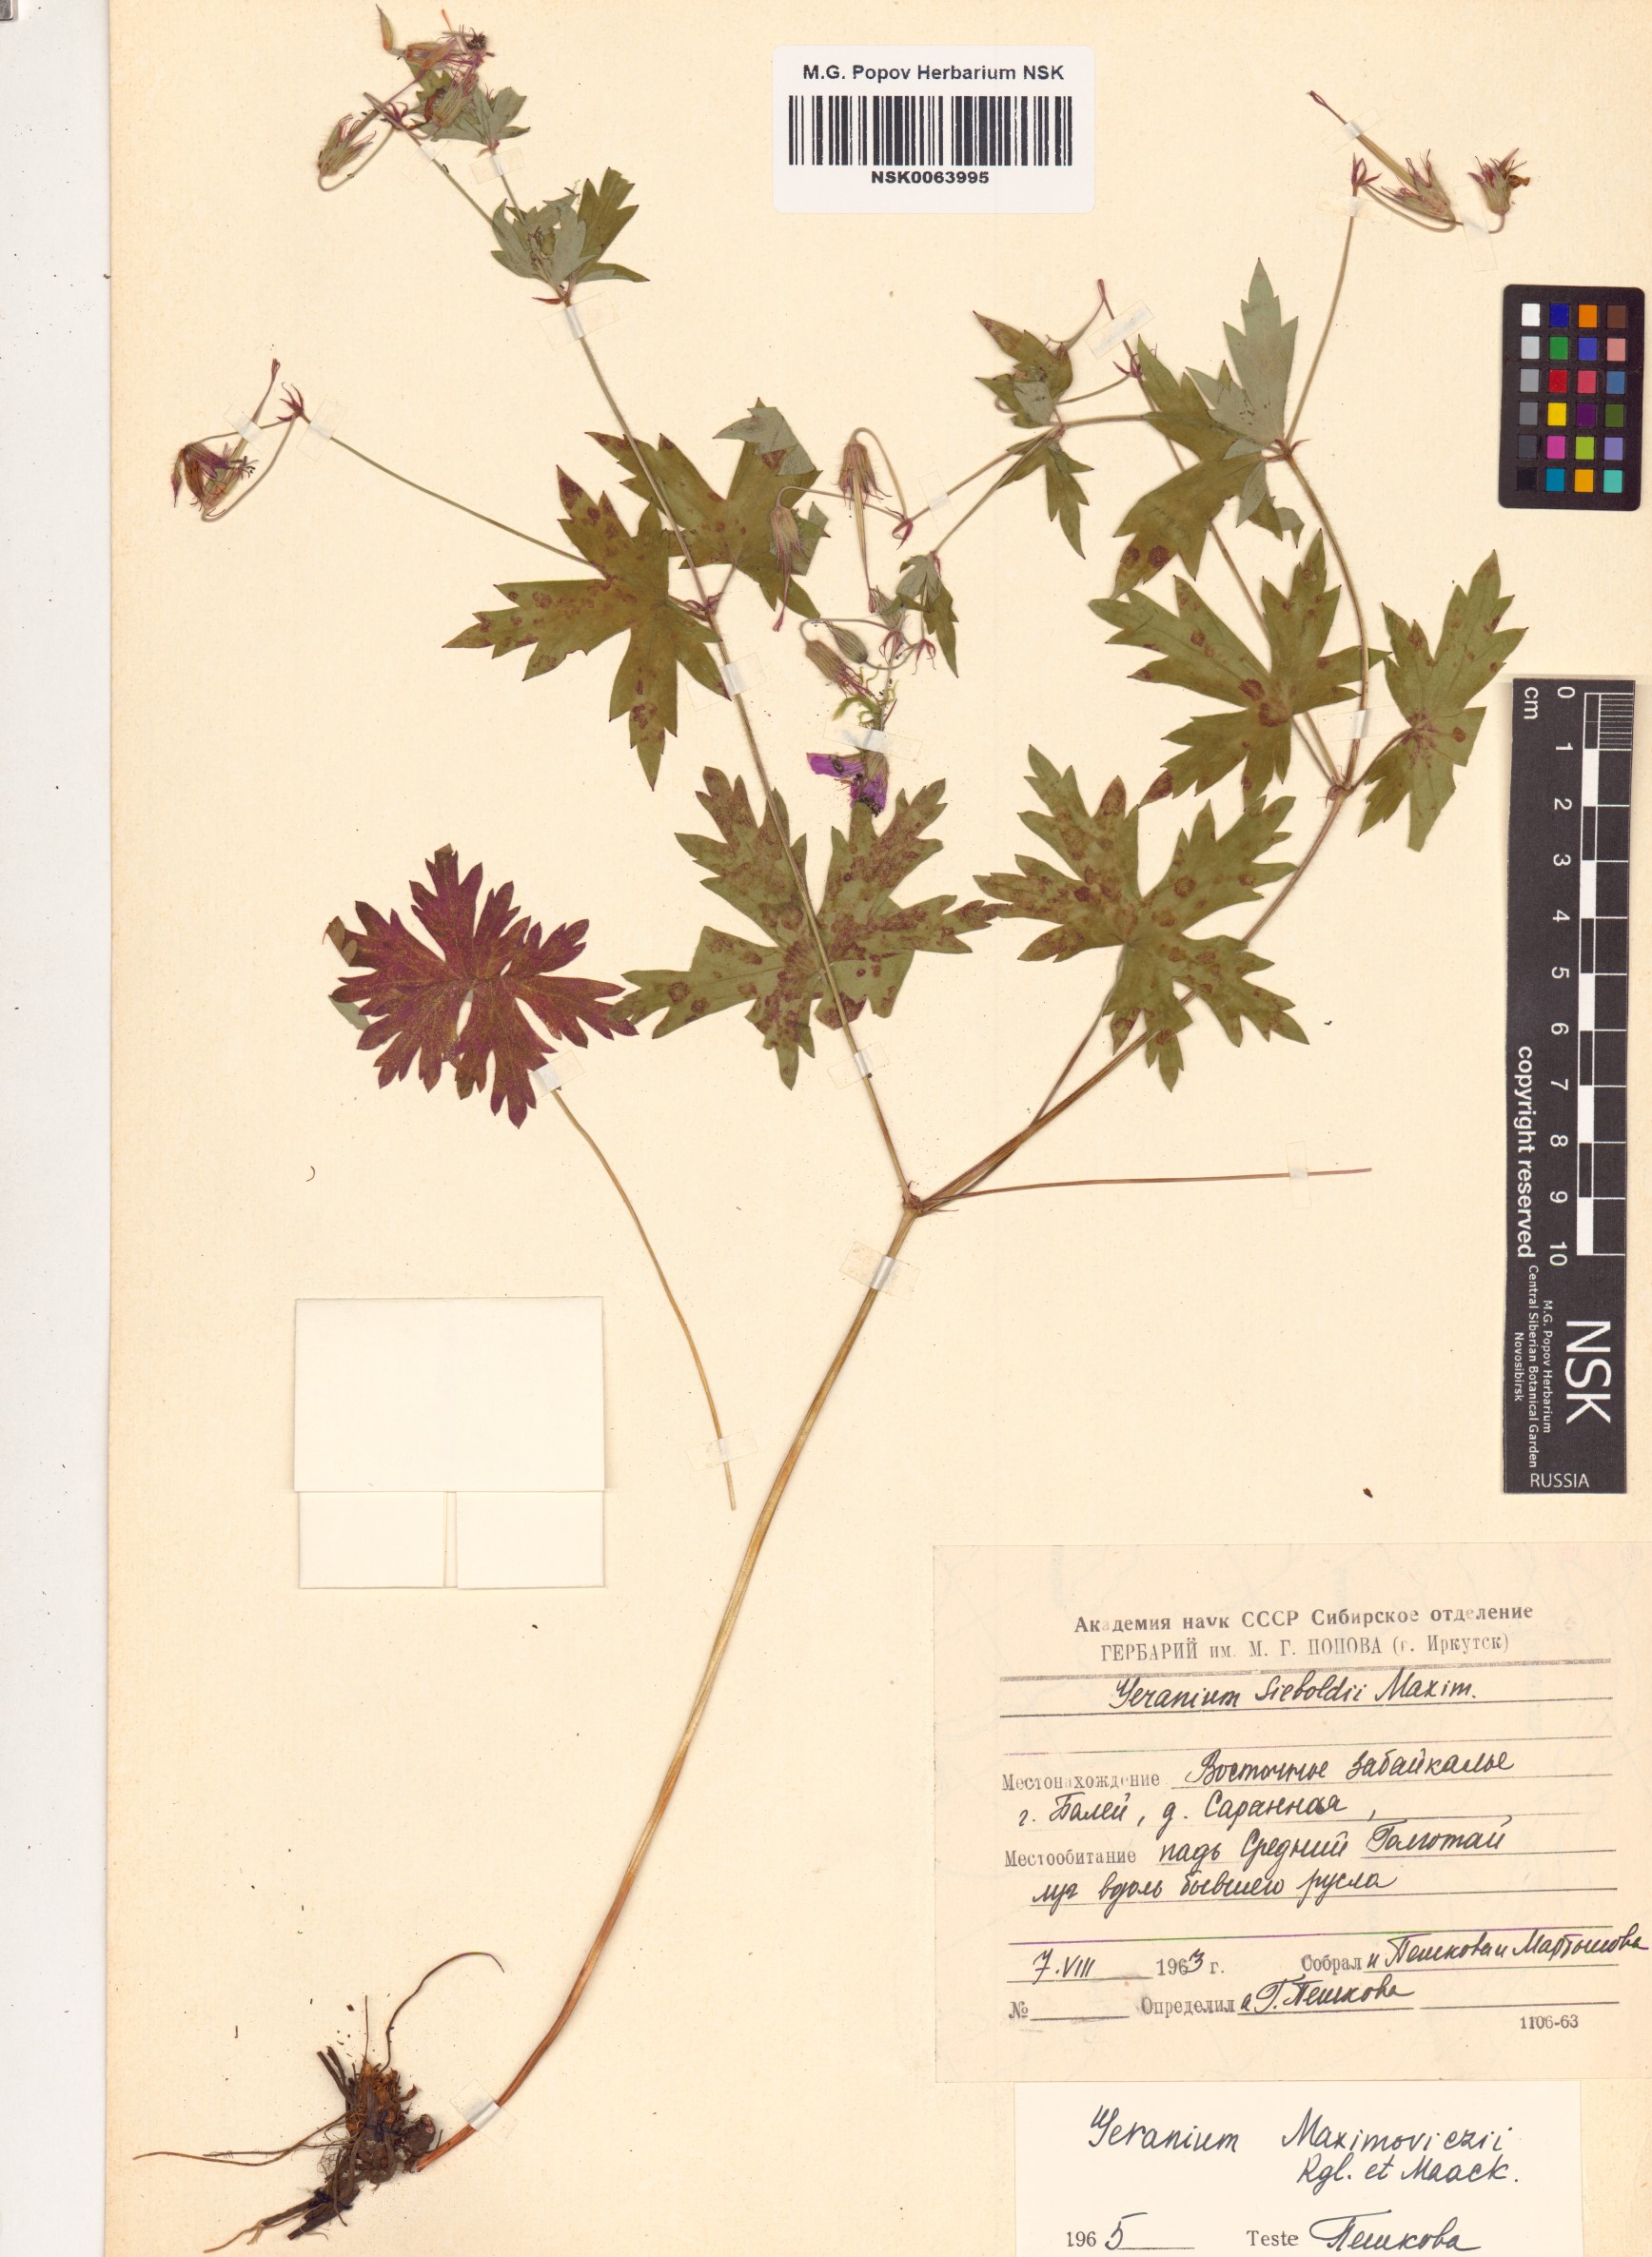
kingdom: Plantae
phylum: Tracheophyta
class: Magnoliopsida
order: Geraniales
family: Geraniaceae
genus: Geranium
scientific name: Geranium maximowiczii
